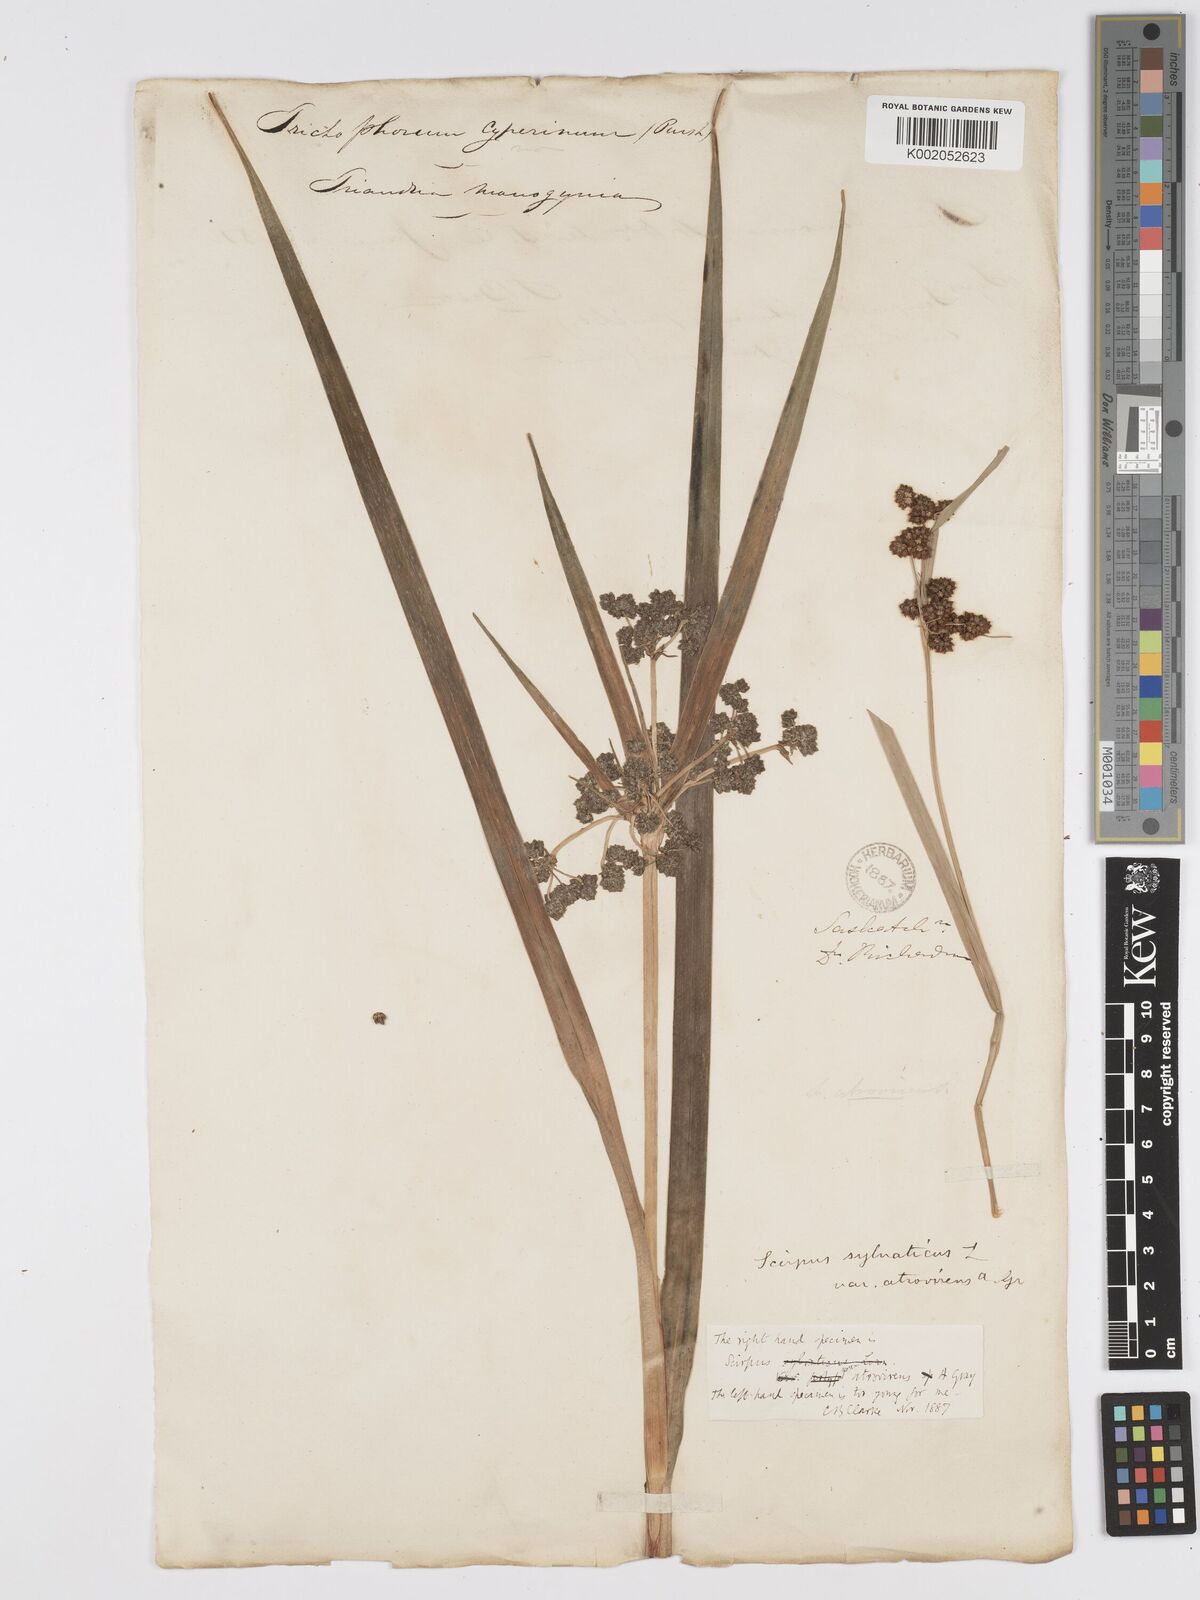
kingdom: Plantae
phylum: Tracheophyta
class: Liliopsida
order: Poales
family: Cyperaceae
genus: Scirpus
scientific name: Scirpus atrovirens
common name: Black bulrush
